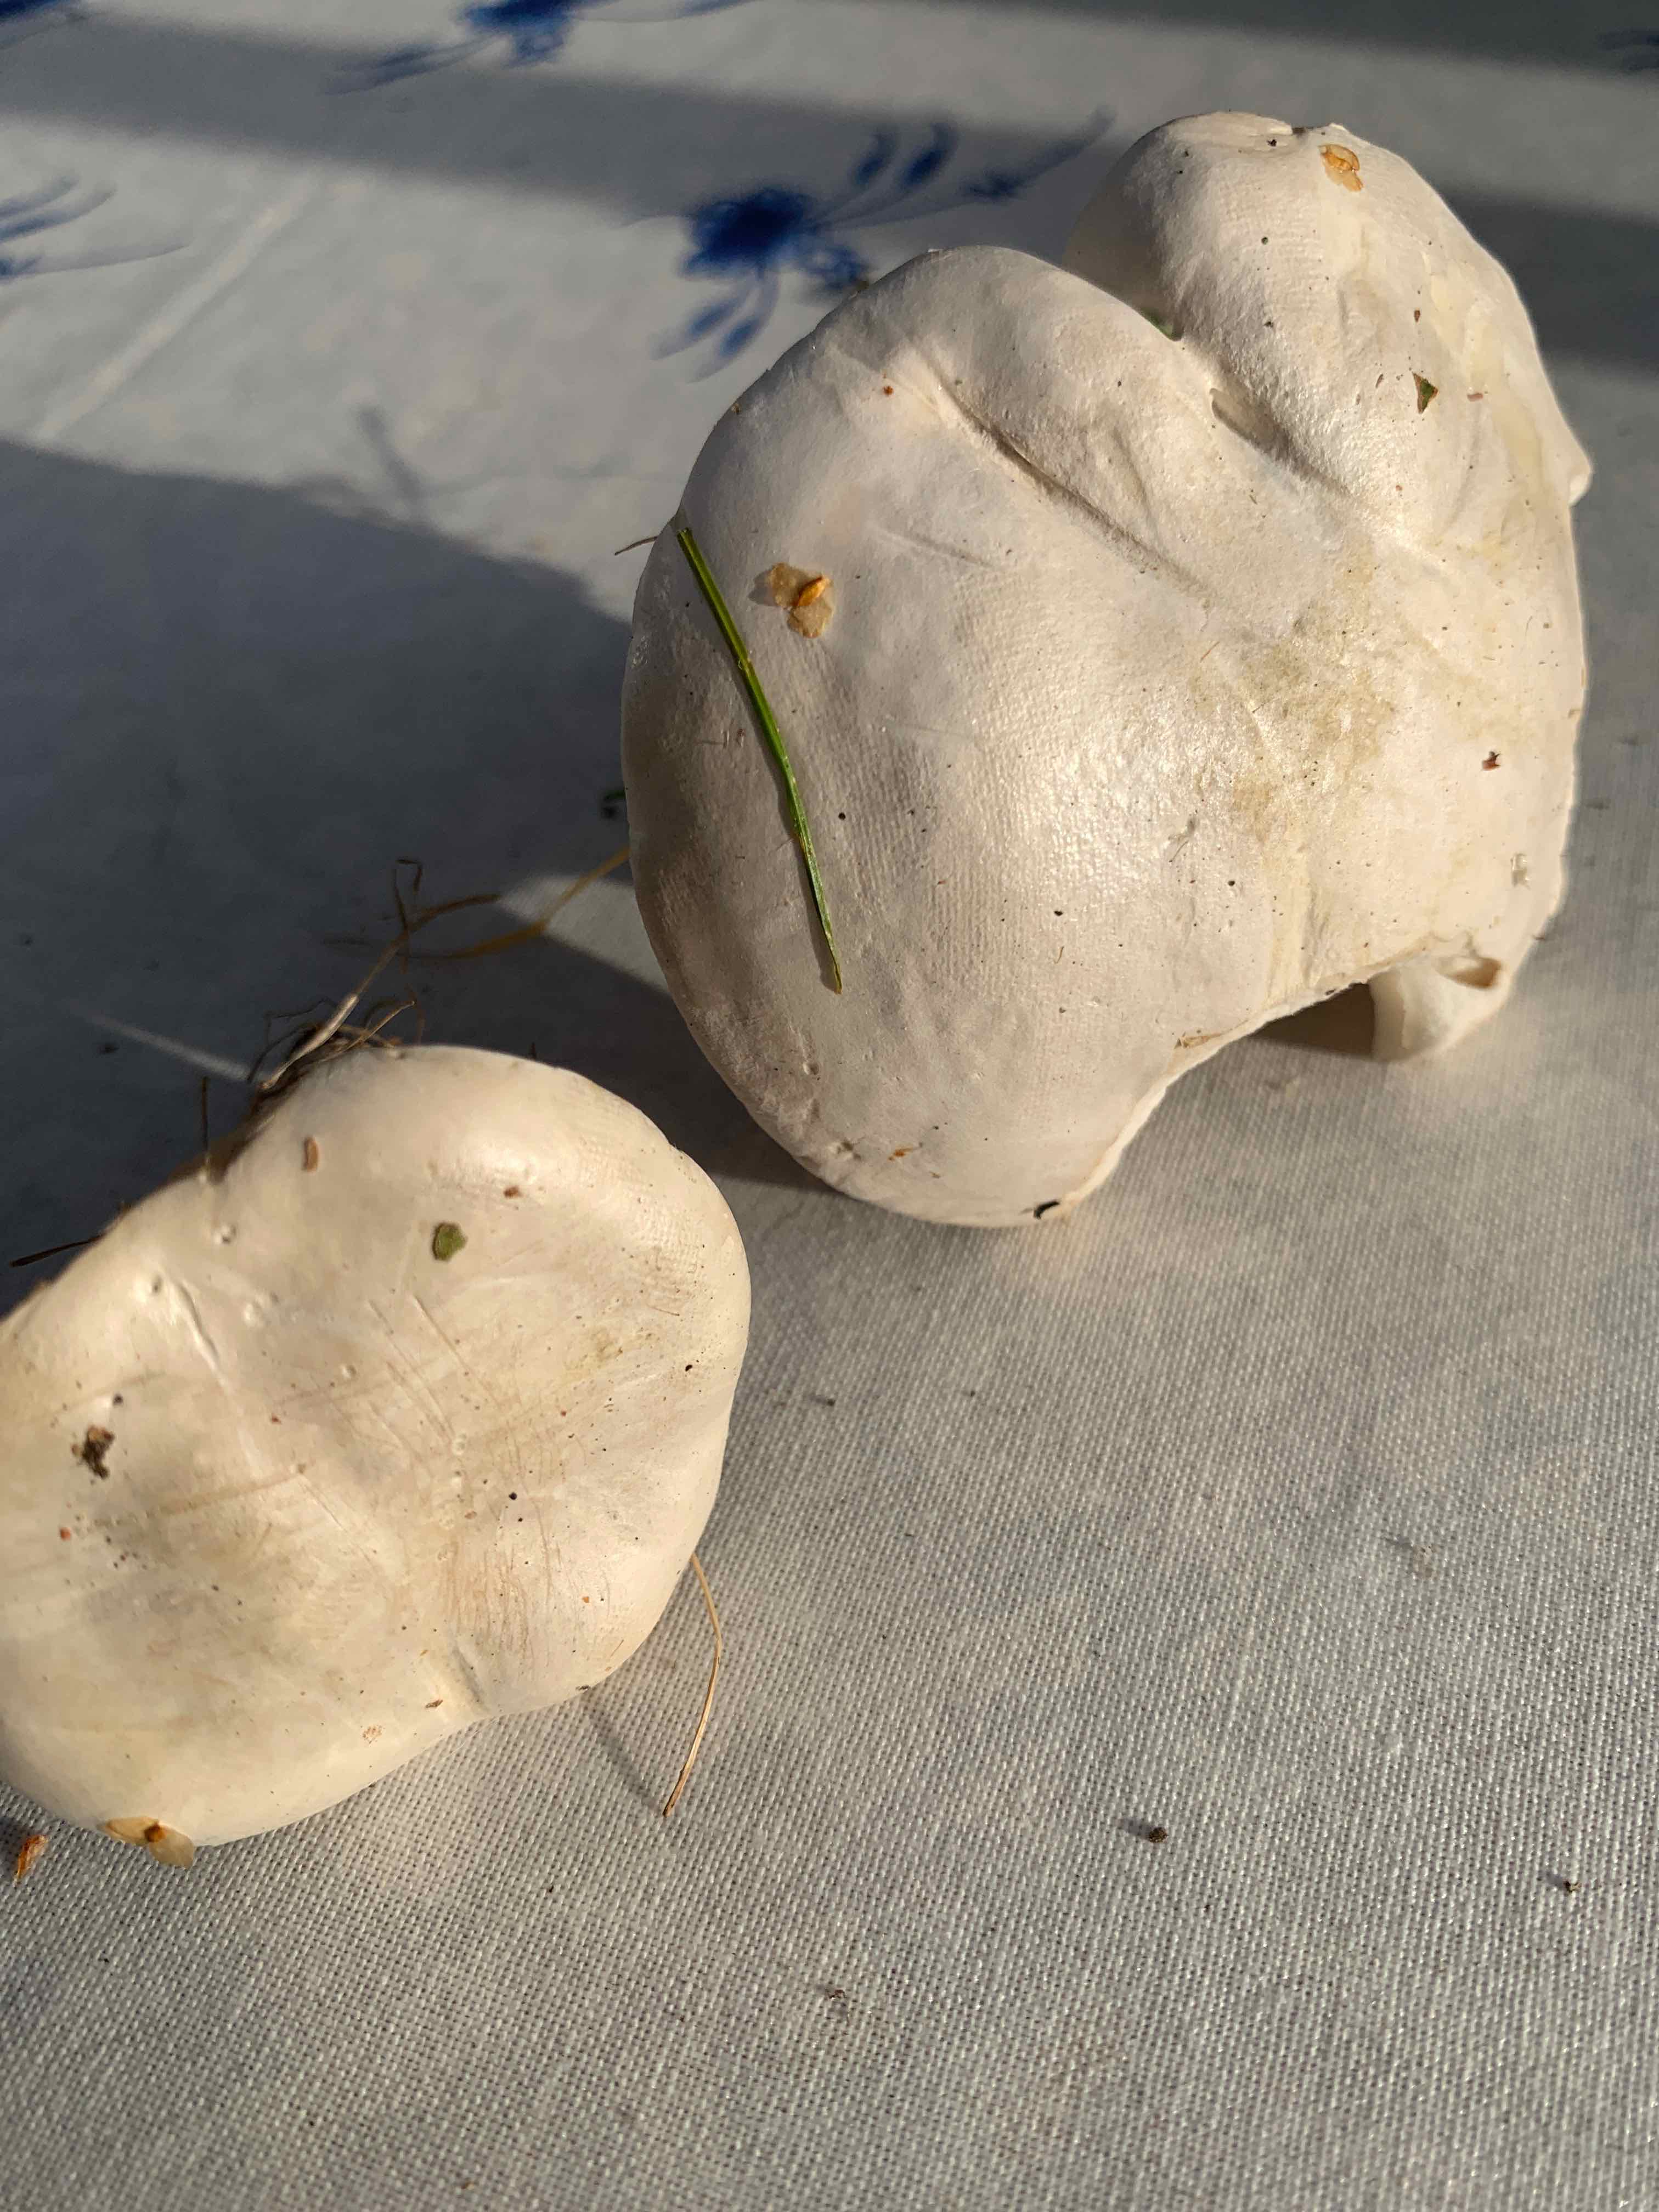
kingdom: Fungi
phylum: Basidiomycota
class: Agaricomycetes
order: Agaricales
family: Entolomataceae
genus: Clitopilus
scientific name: Clitopilus prunulus
